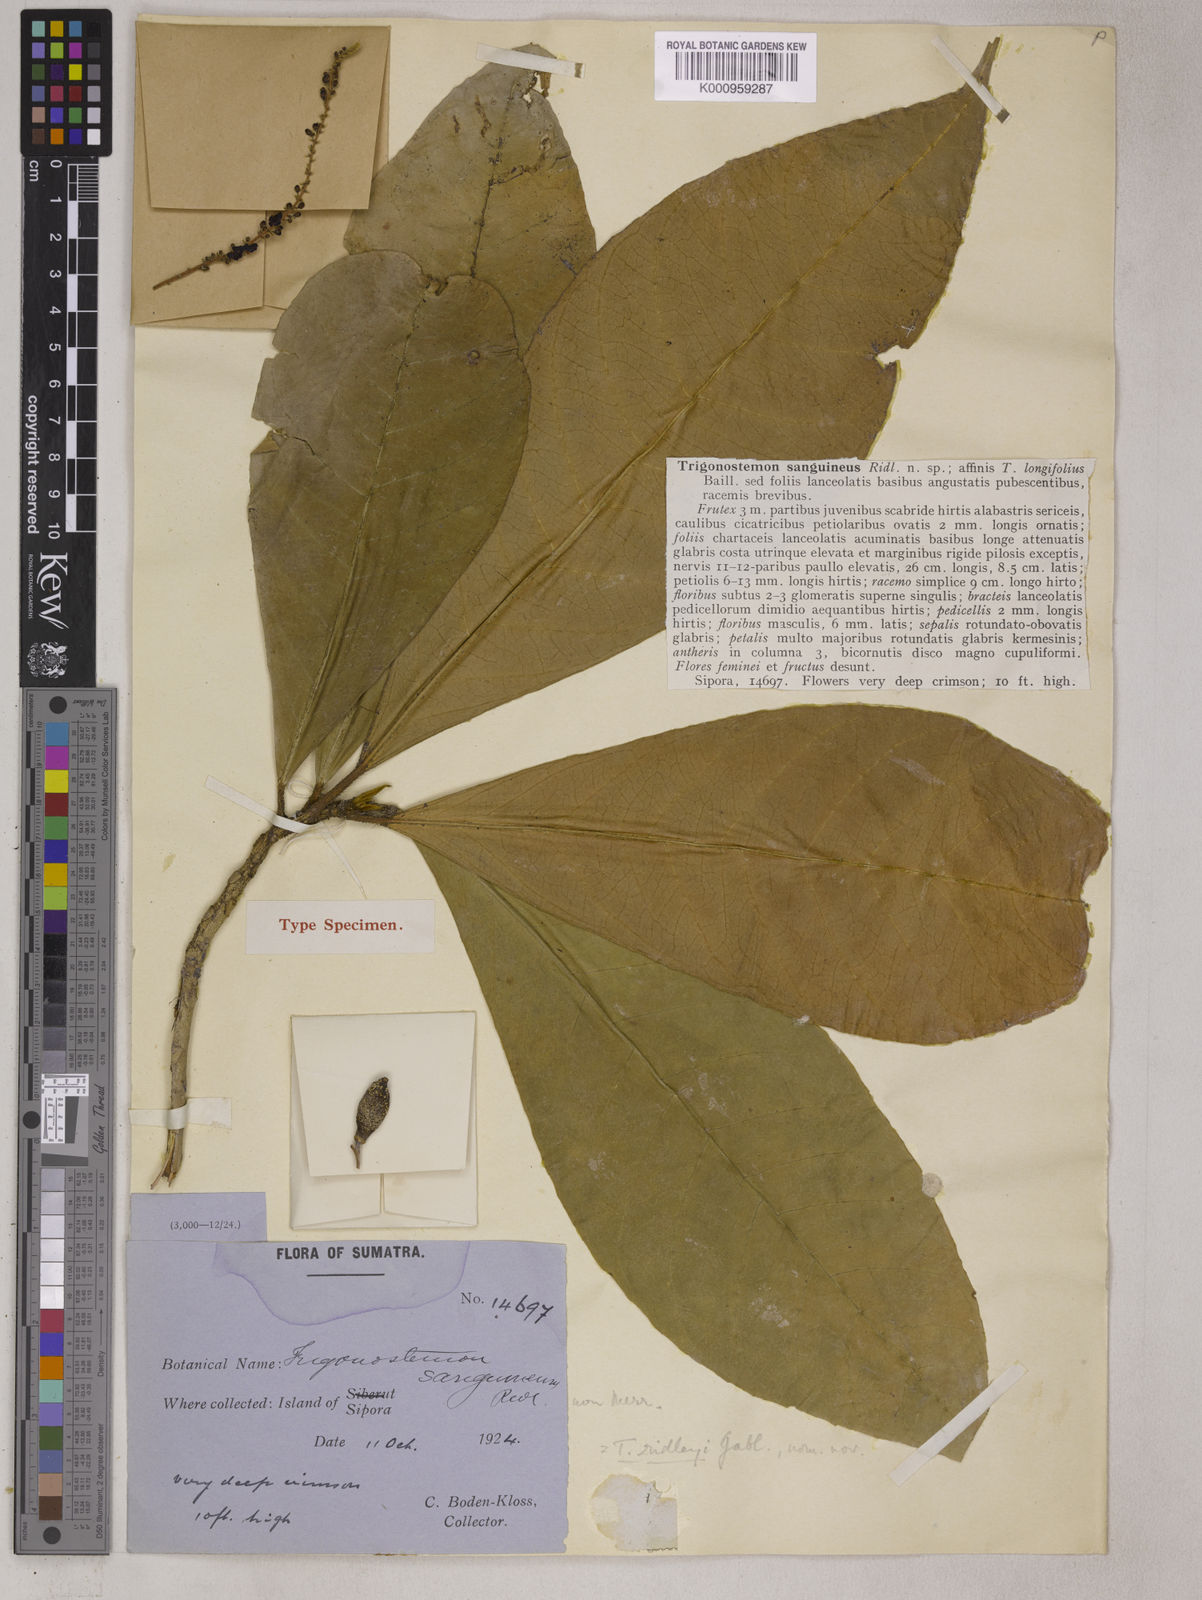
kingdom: Plantae
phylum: Tracheophyta
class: Magnoliopsida
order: Malpighiales
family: Euphorbiaceae
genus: Trigonostemon
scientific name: Trigonostemon
